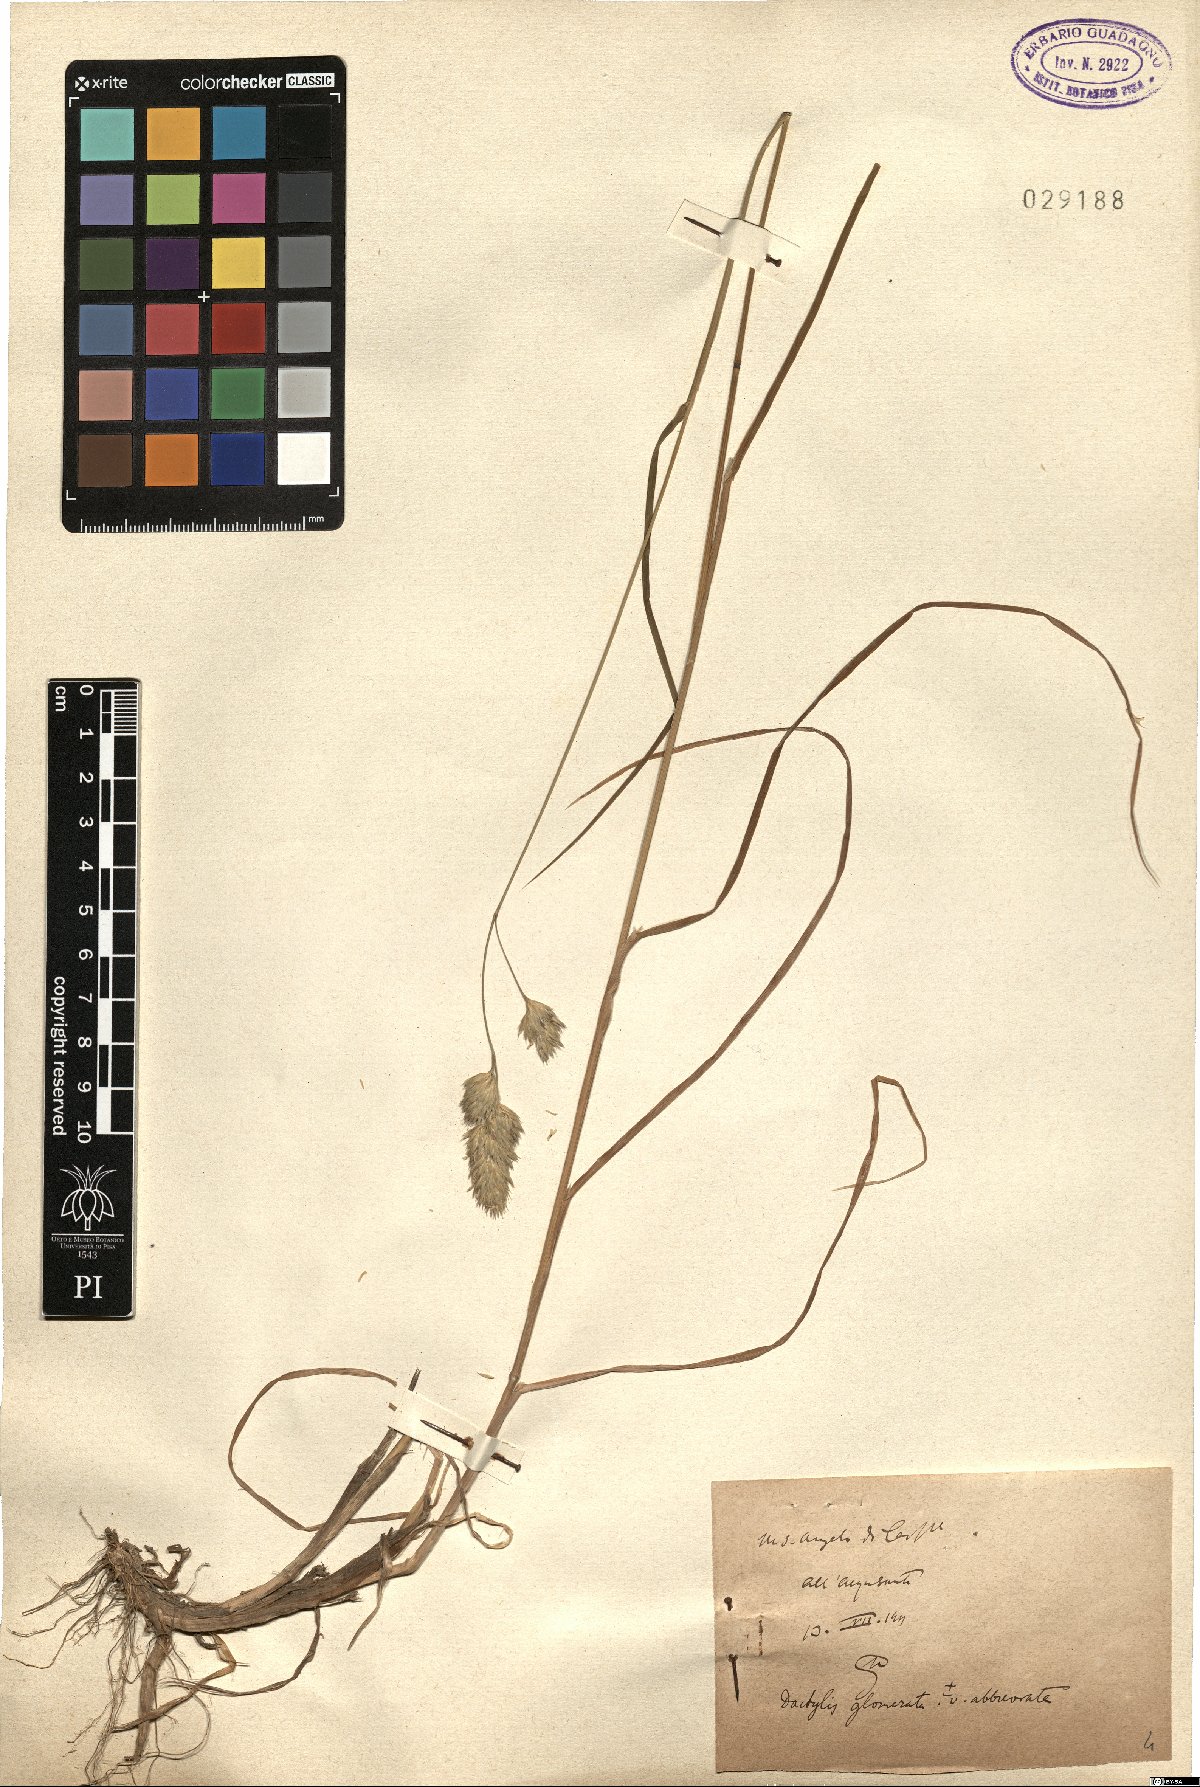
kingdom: Plantae
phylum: Tracheophyta
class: Liliopsida
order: Poales
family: Poaceae
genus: Dactylis
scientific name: Dactylis glomerata
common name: Orchardgrass
